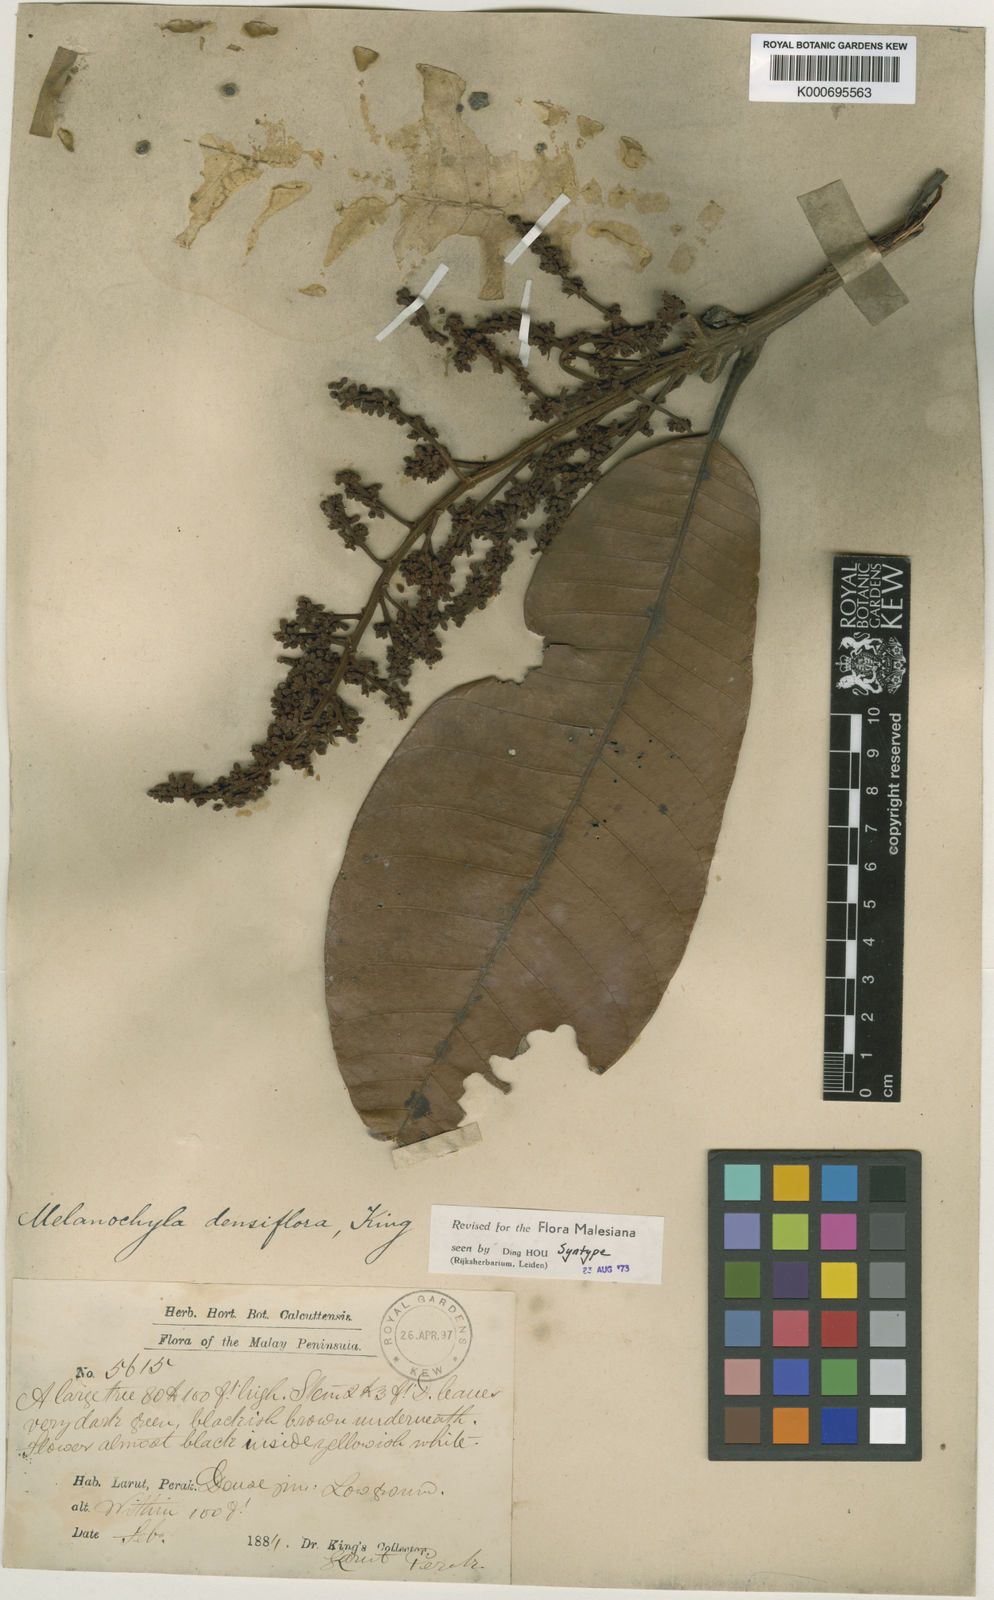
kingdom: Plantae
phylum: Tracheophyta
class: Magnoliopsida
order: Sapindales
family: Anacardiaceae
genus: Melanochyla
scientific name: Melanochyla densiflora
